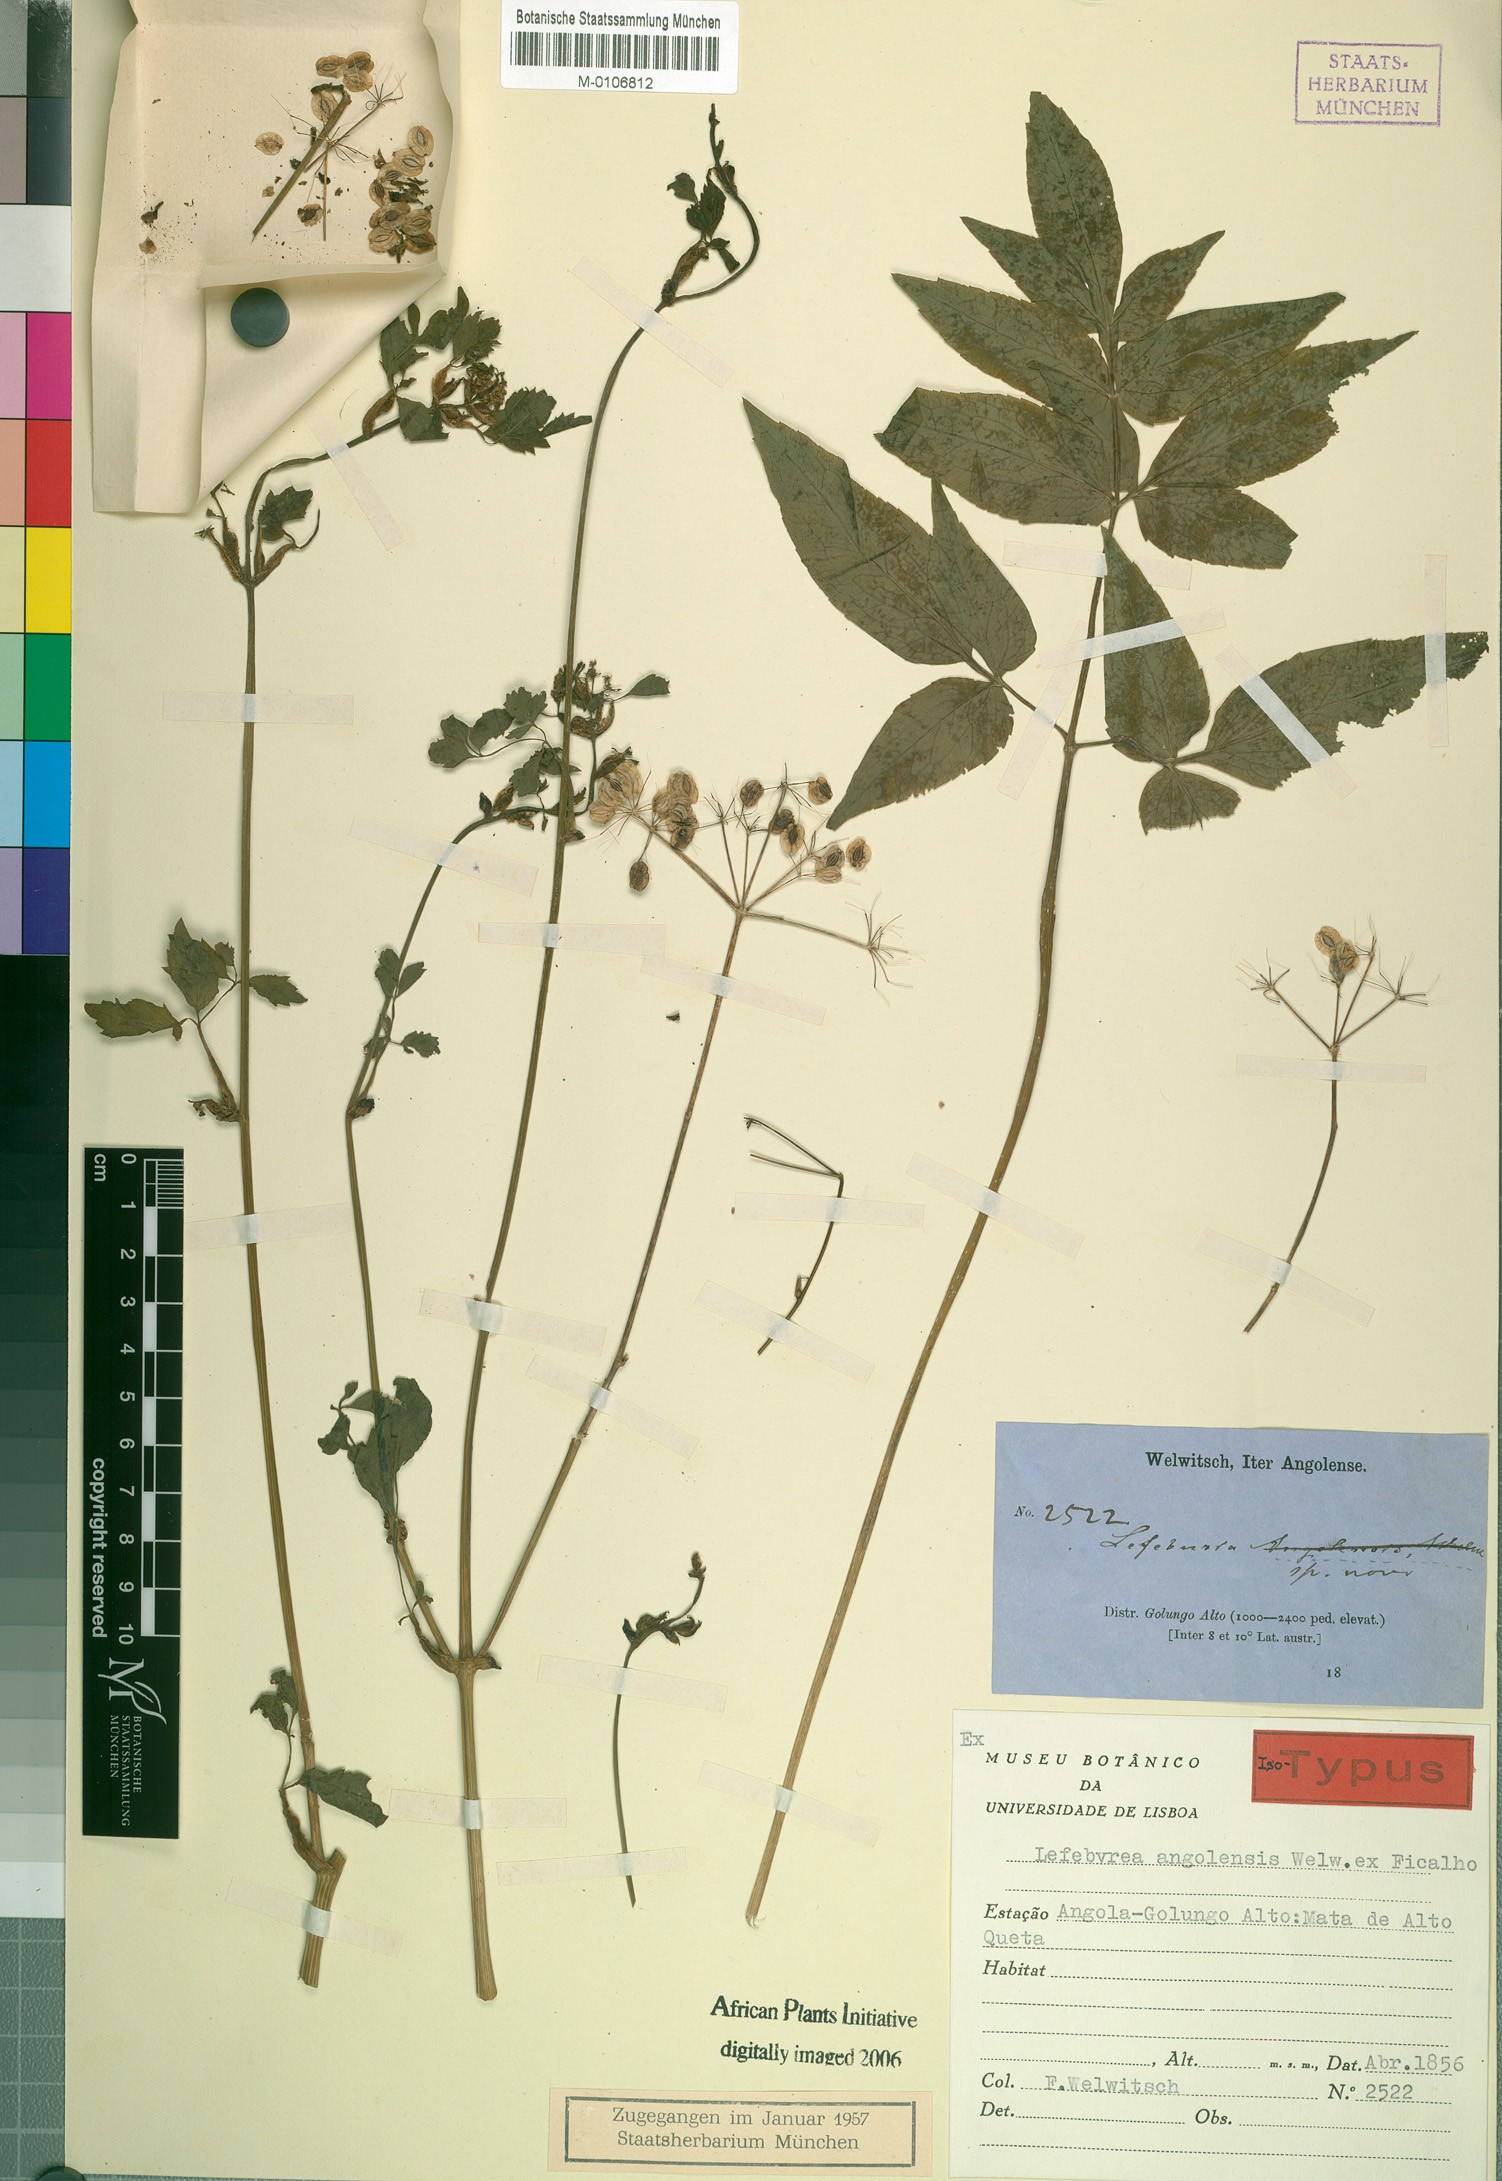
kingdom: Plantae
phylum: Tracheophyta
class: Magnoliopsida
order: Apiales
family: Apiaceae
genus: Lefebvrea
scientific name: Lefebvrea grantii
